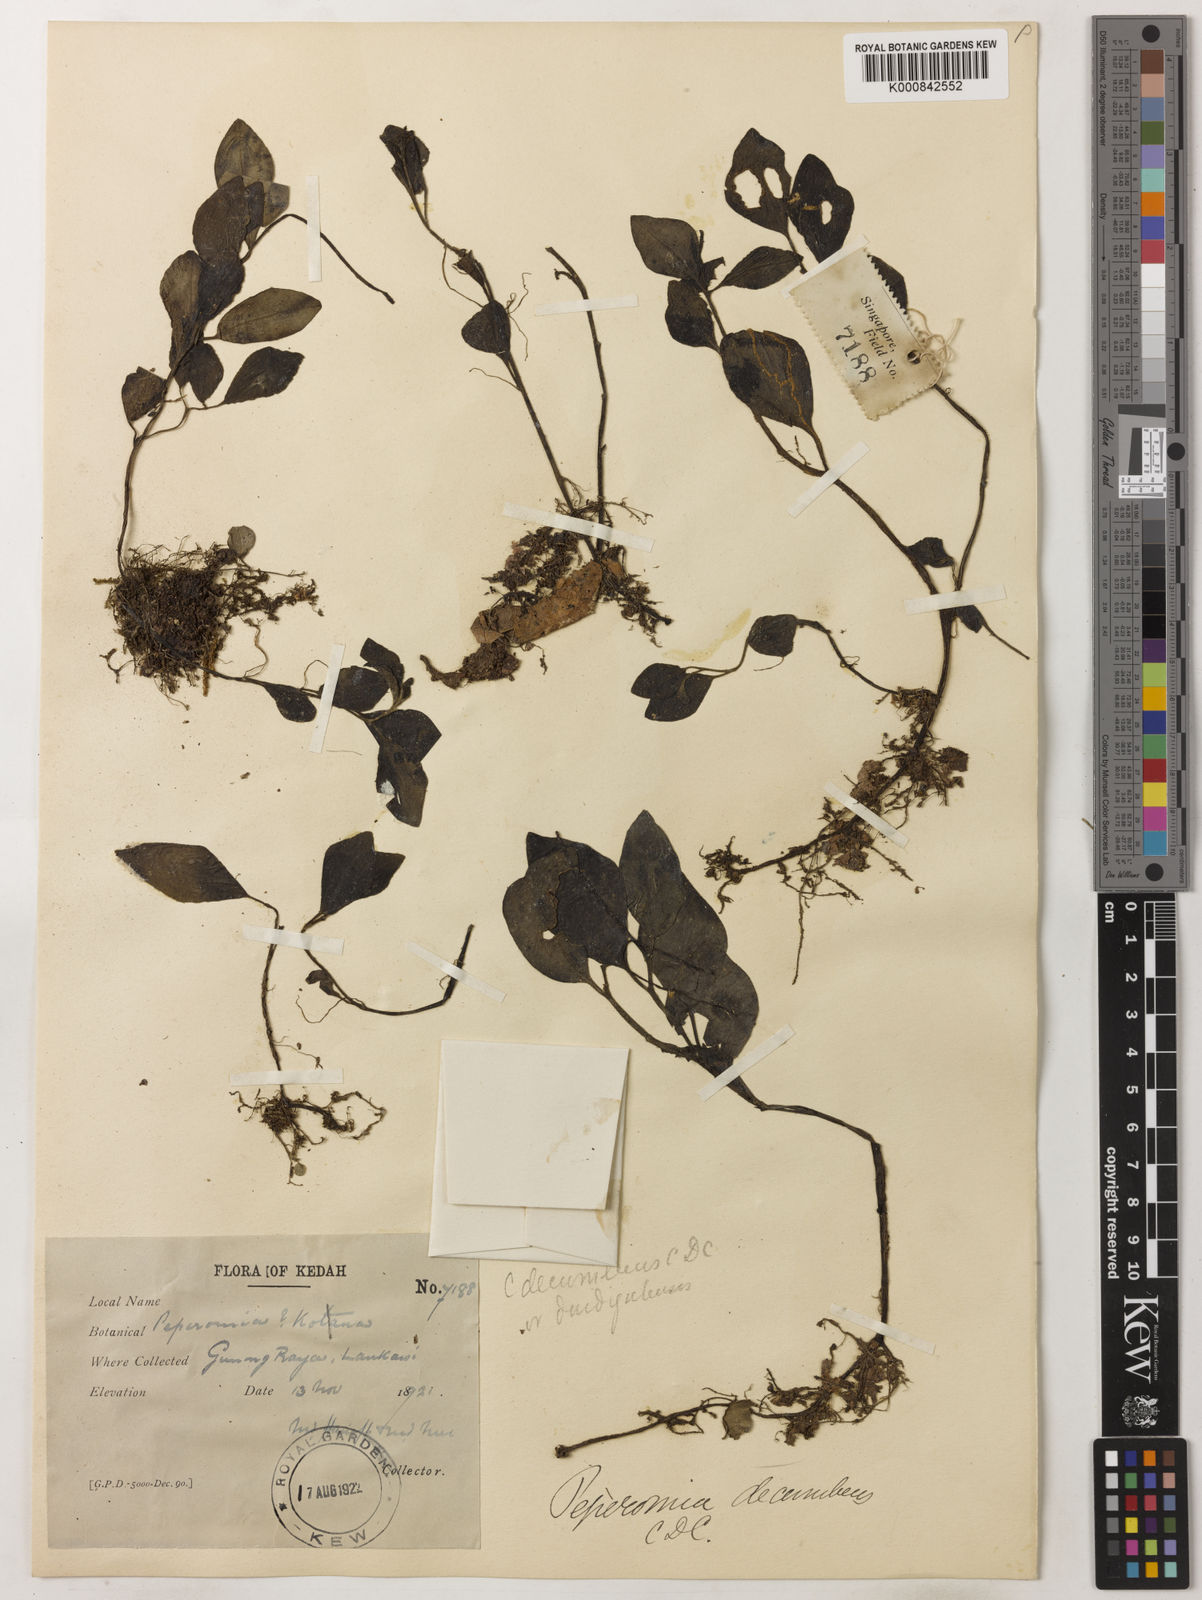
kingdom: Plantae
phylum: Tracheophyta
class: Magnoliopsida
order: Piperales
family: Piperaceae
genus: Peperomia
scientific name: Peperomia decumbens
